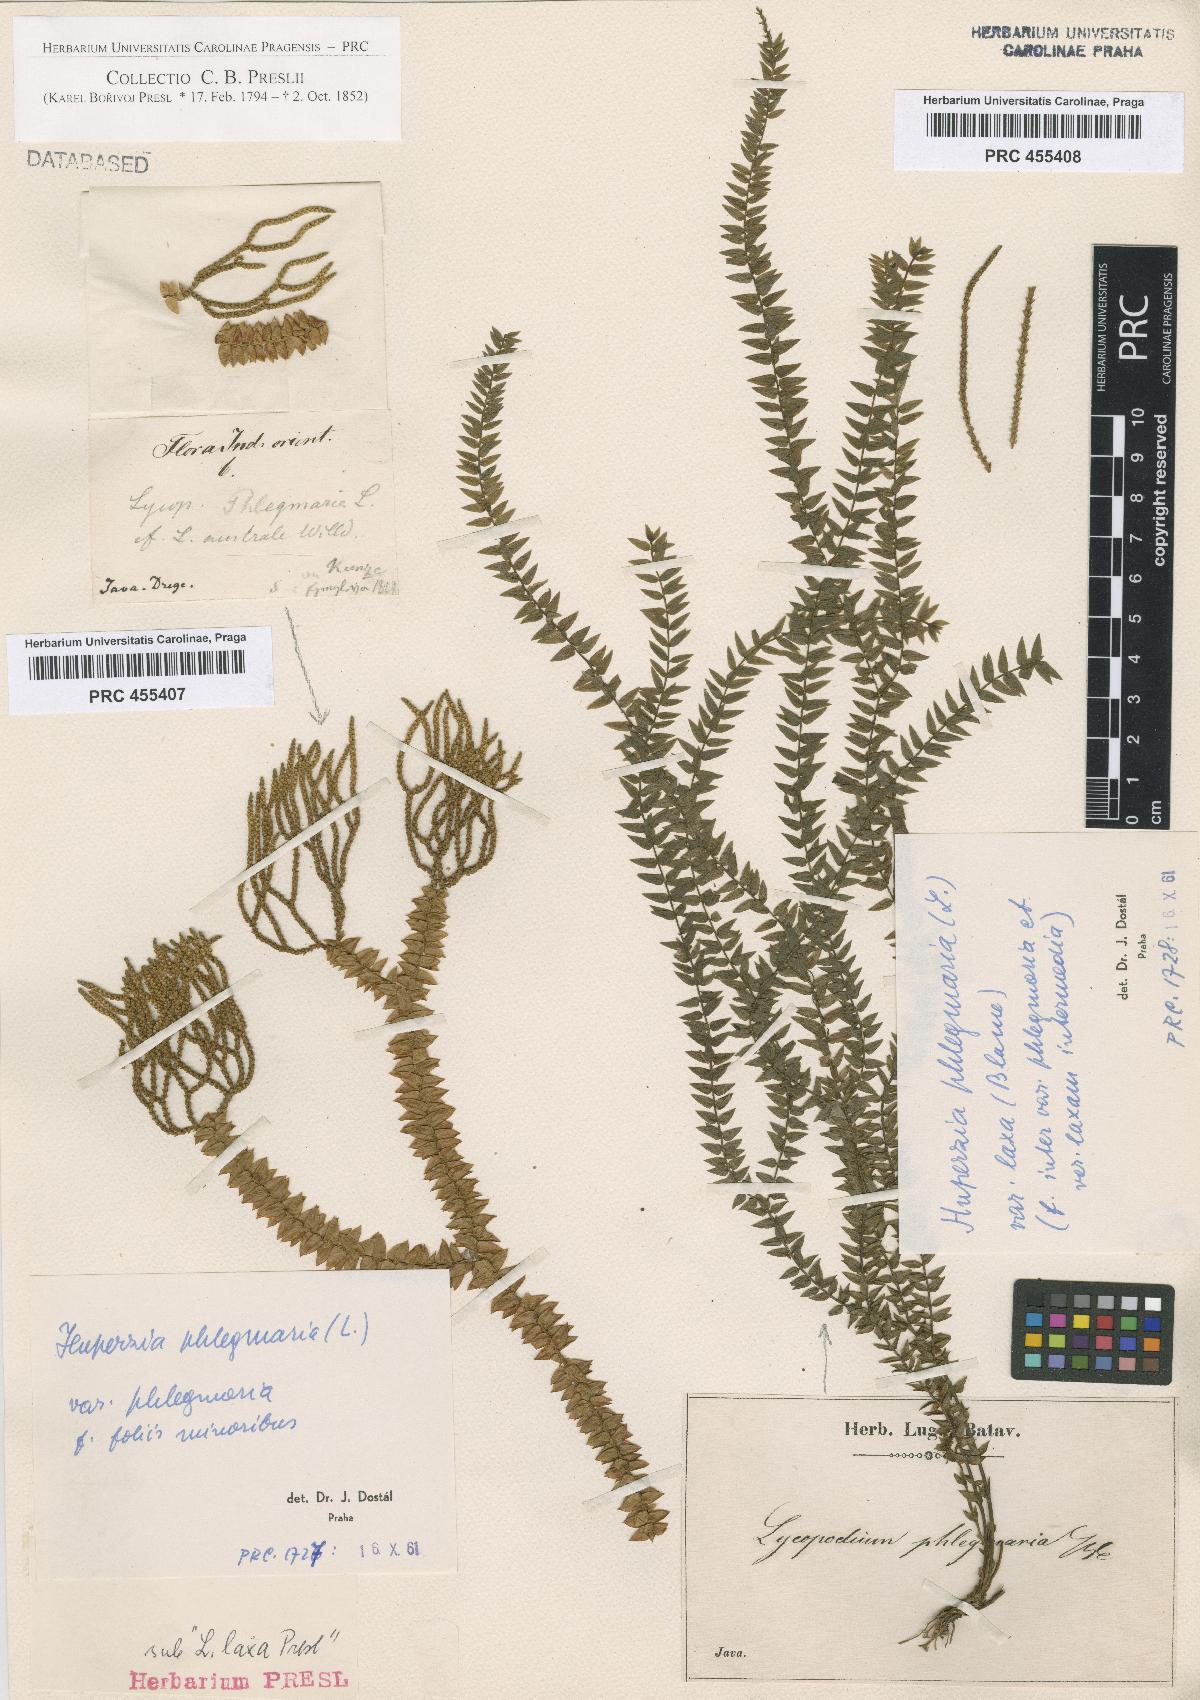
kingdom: Plantae
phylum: Tracheophyta
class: Lycopodiopsida
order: Lycopodiales
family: Lycopodiaceae
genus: Phlegmariurus
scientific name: Phlegmariurus phlegmaria
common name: Coarse tassel-fern
